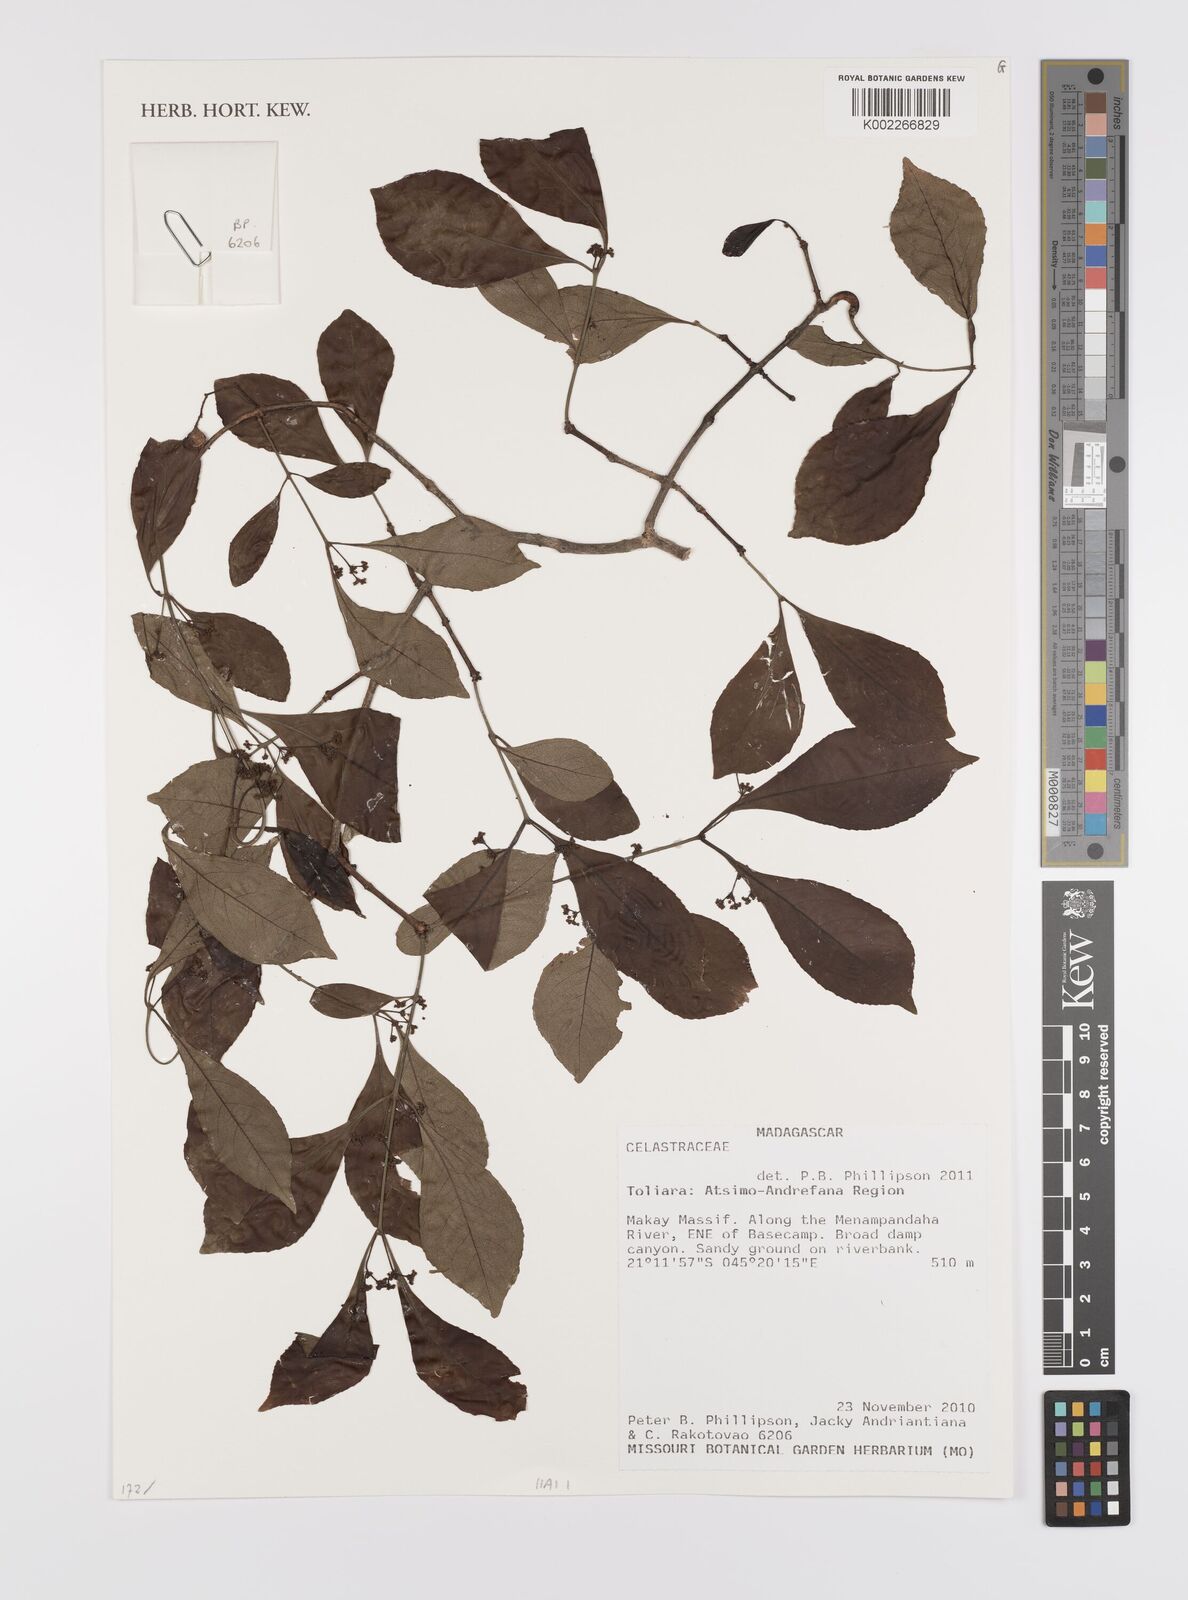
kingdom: Plantae
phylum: Tracheophyta
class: Magnoliopsida
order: Celastrales
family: Celastraceae
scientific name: Celastraceae
